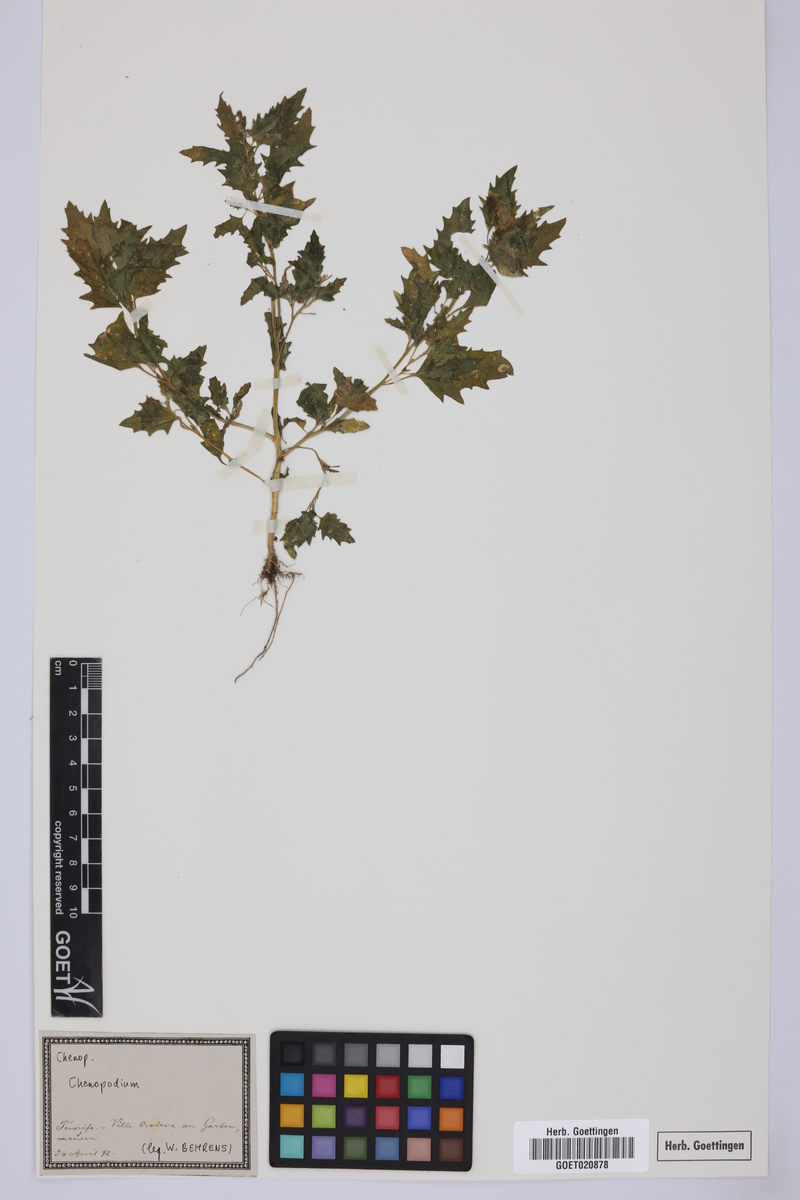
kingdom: Plantae
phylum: Tracheophyta
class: Magnoliopsida
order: Caryophyllales
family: Amaranthaceae
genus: Chenopodium
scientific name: Chenopodium
